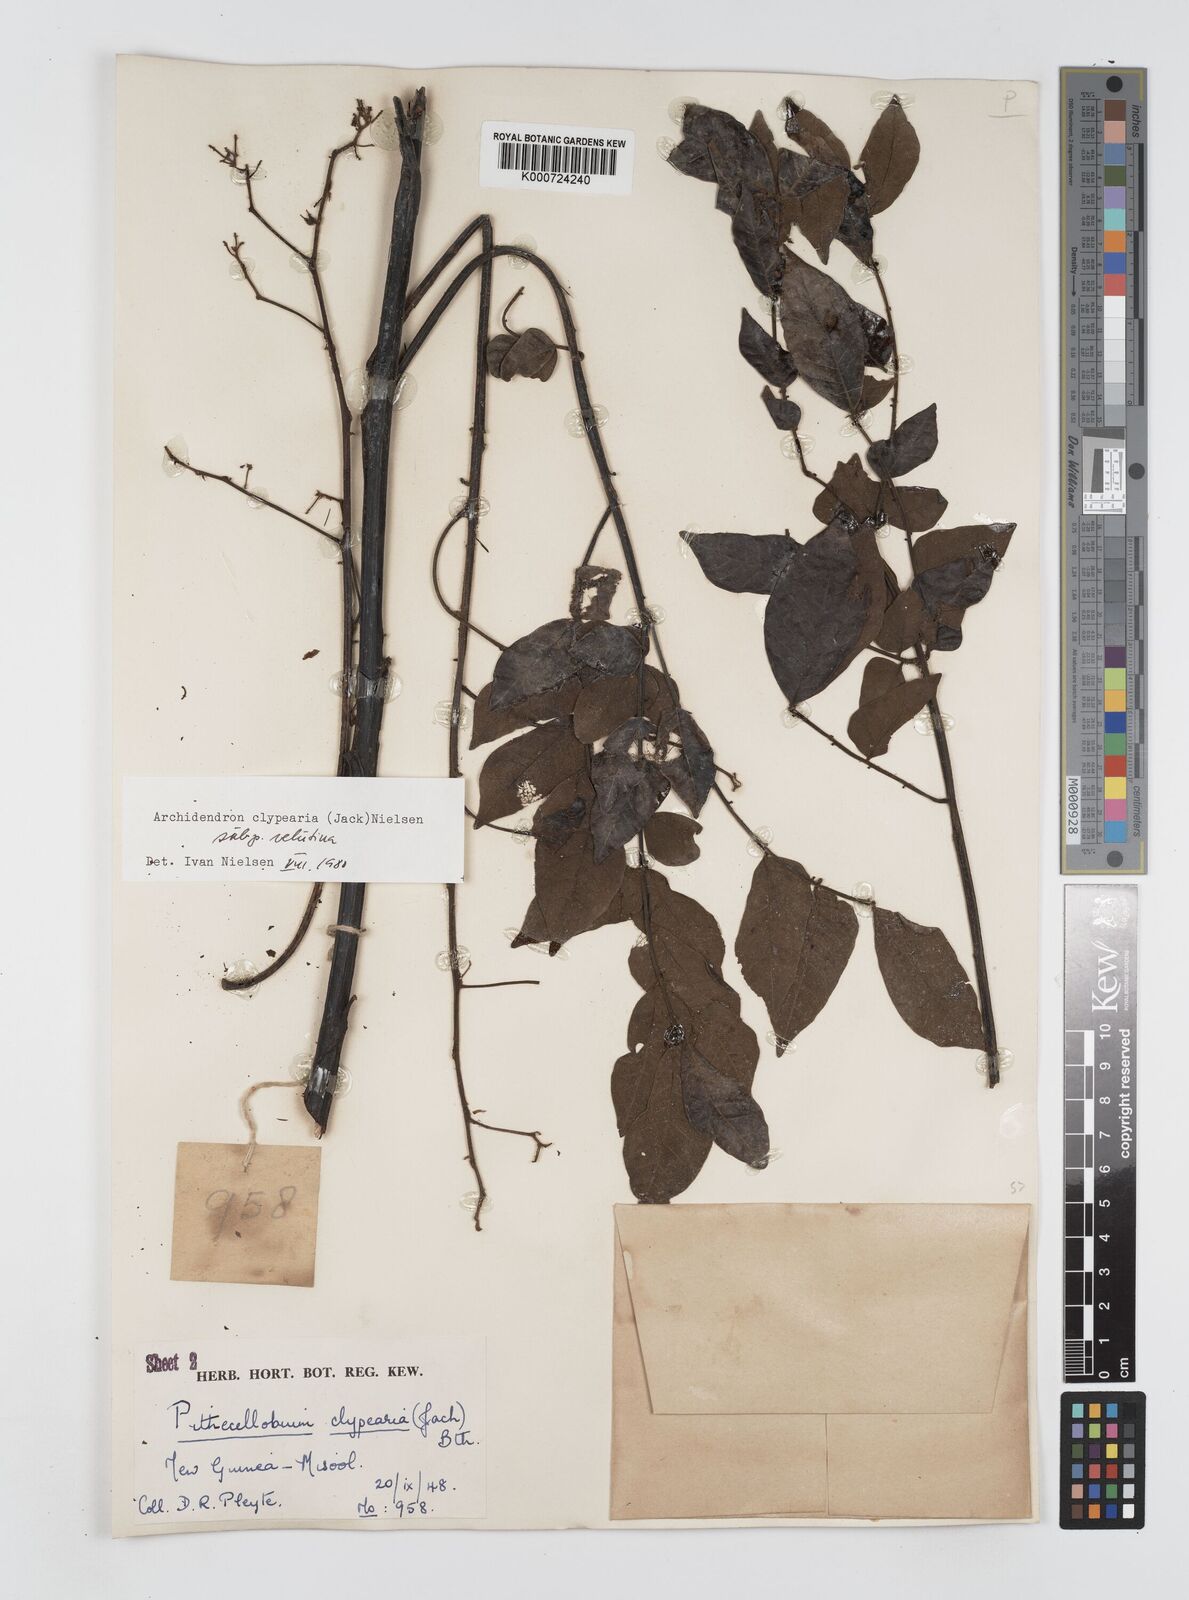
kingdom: Plantae
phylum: Tracheophyta
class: Magnoliopsida
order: Fabales
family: Fabaceae
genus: Archidendron
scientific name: Archidendron clypearia
